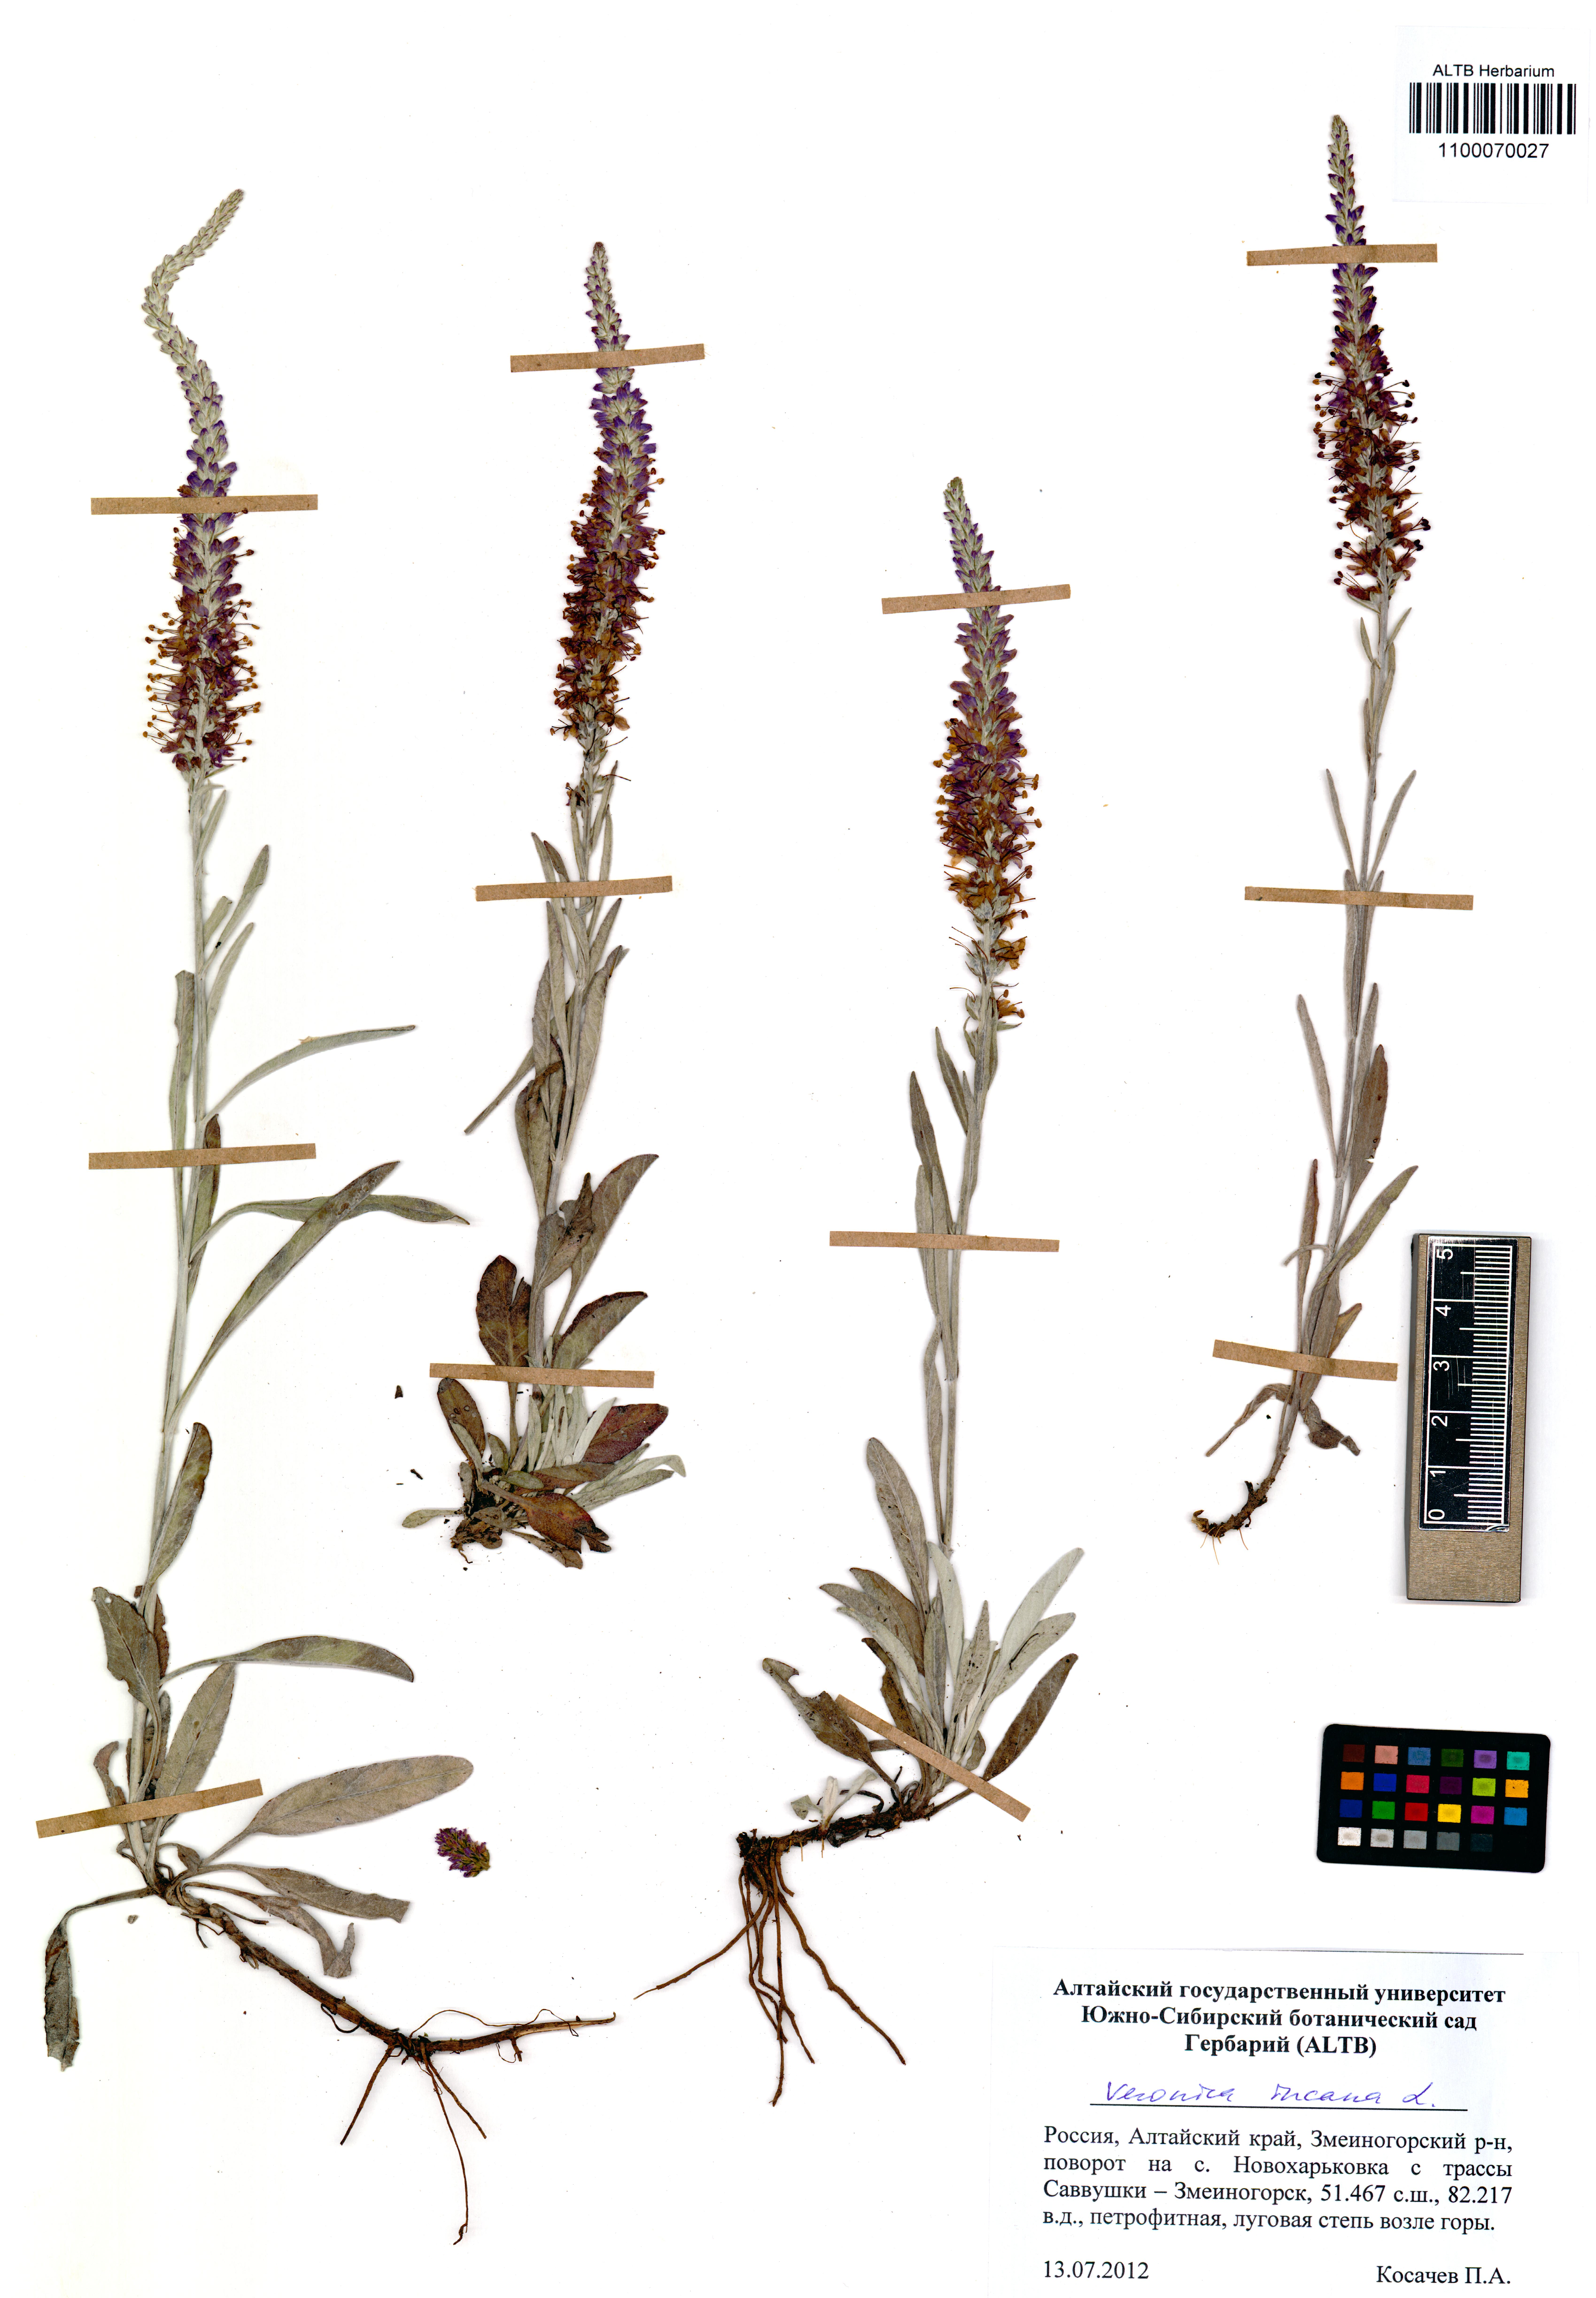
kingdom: Plantae
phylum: Tracheophyta
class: Magnoliopsida
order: Lamiales
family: Plantaginaceae
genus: Veronica
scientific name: Veronica incana
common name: Silver speedwell
